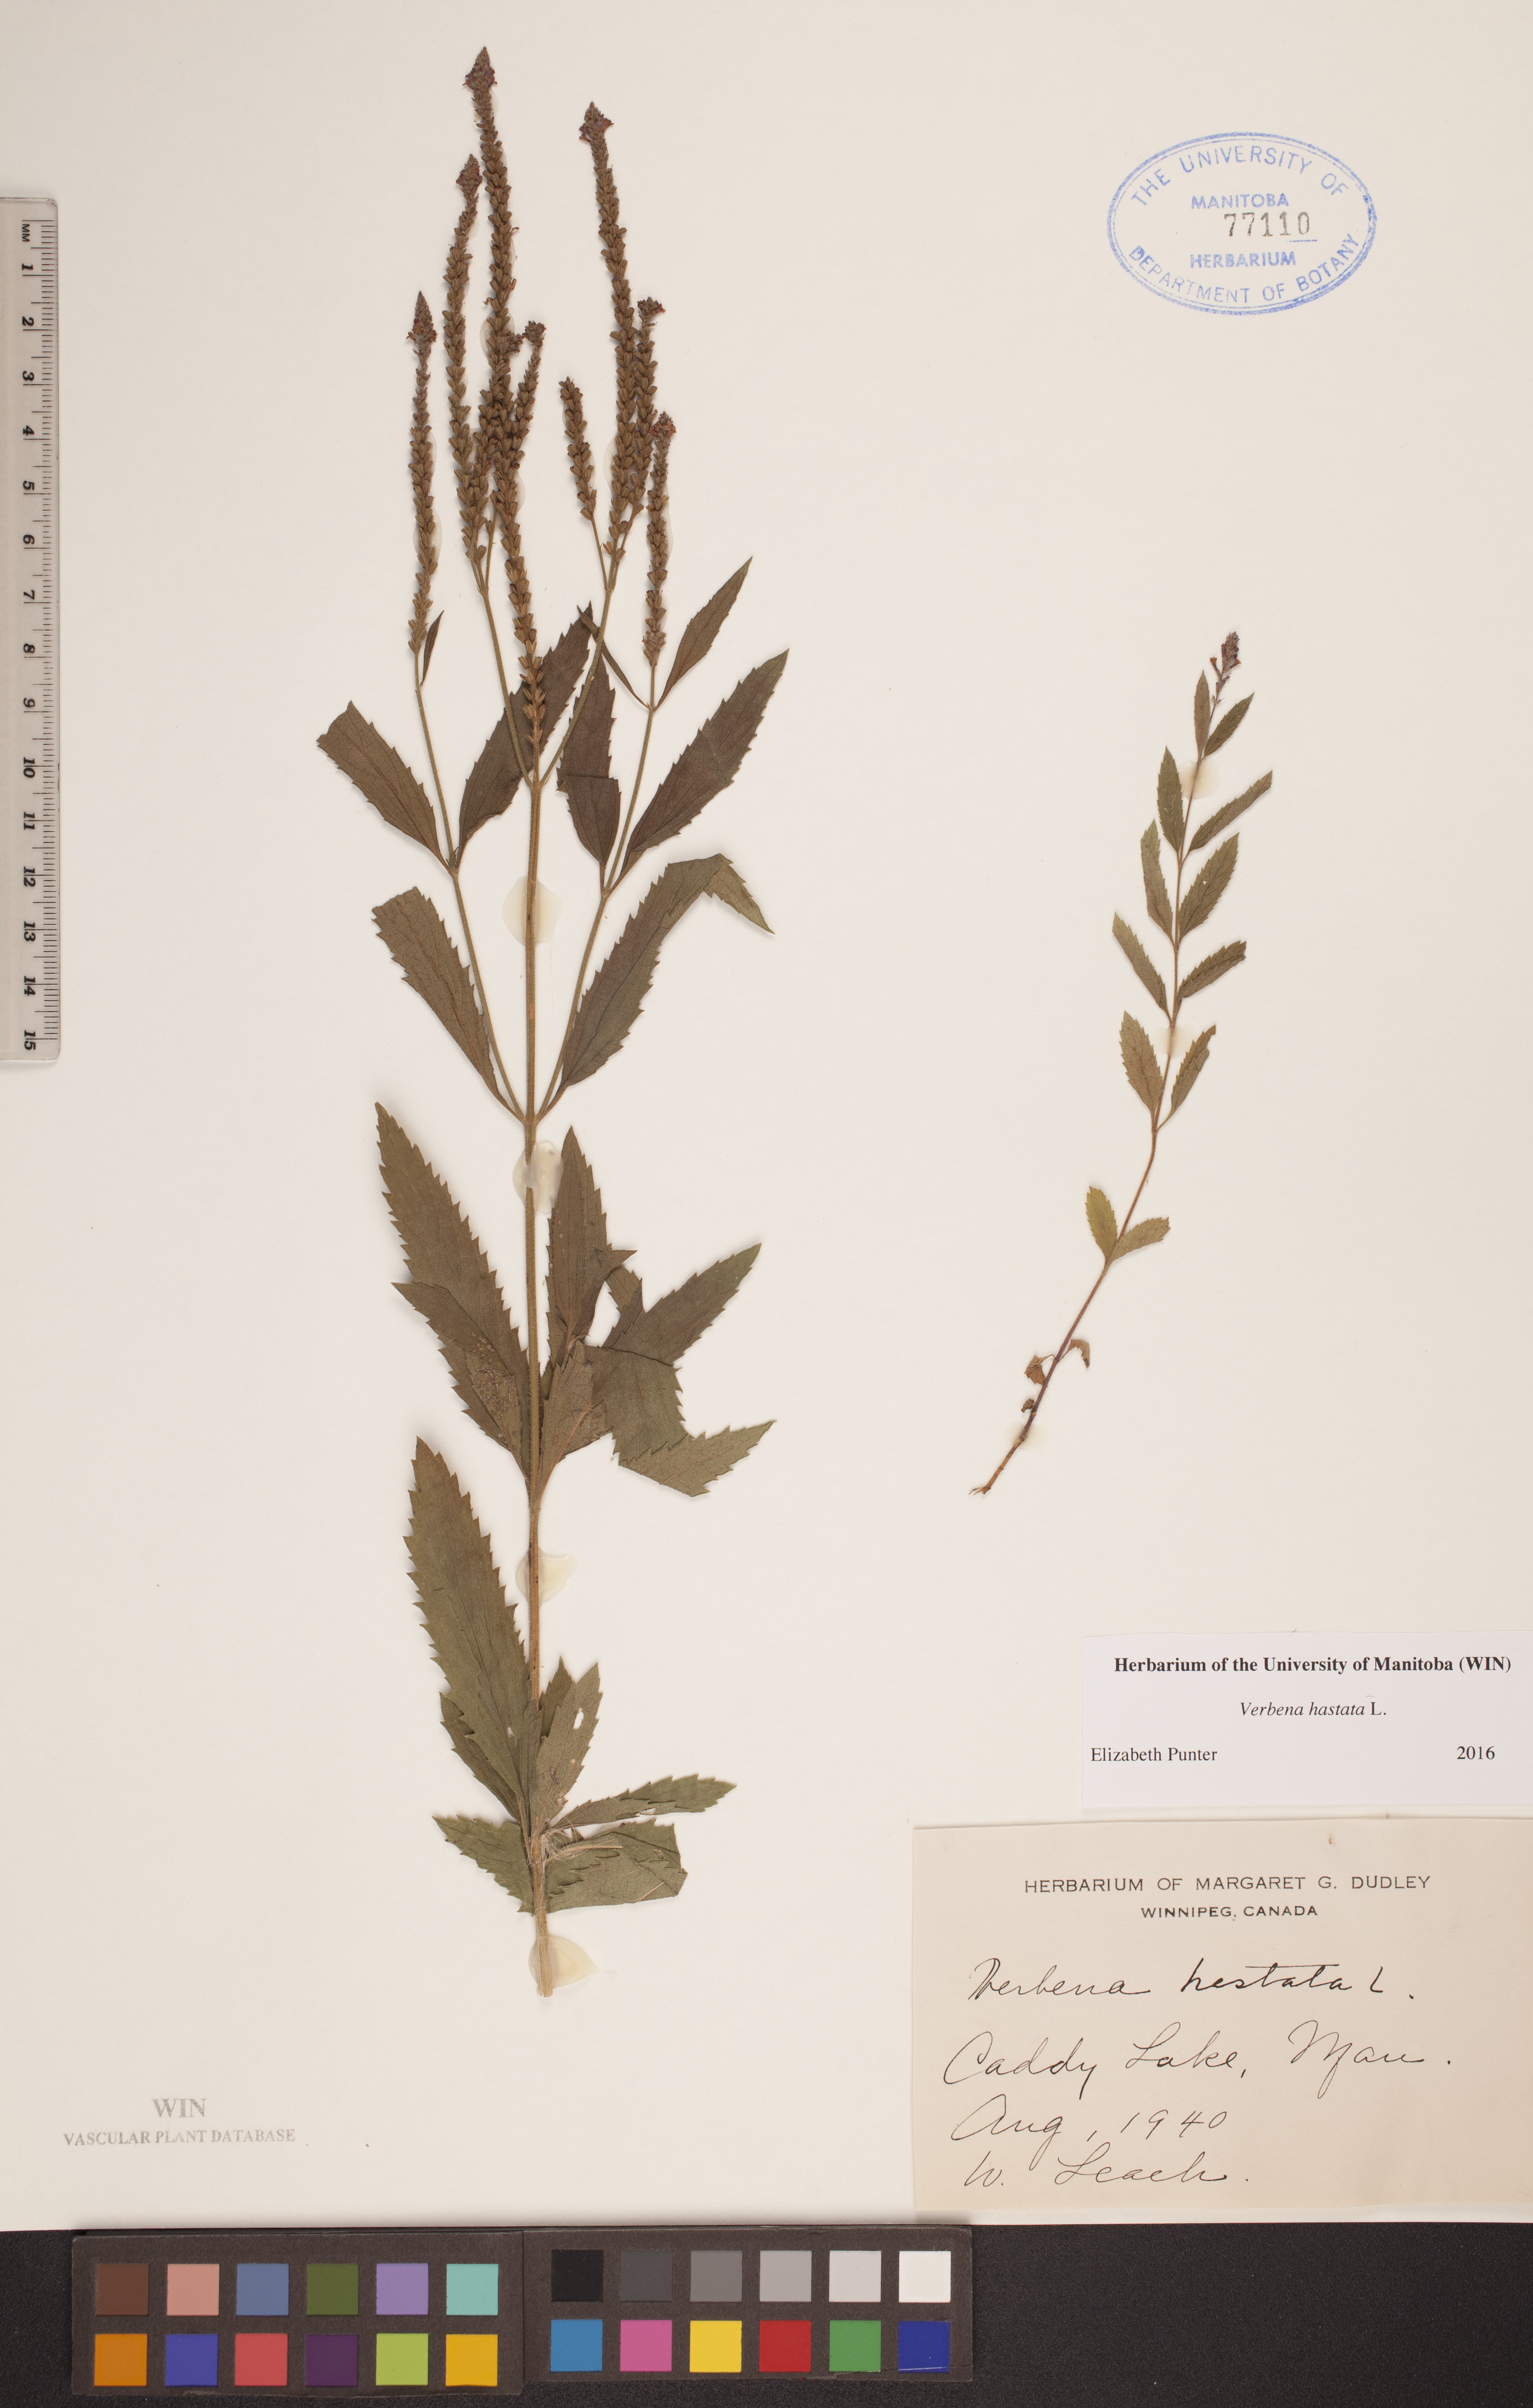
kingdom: Plantae
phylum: Tracheophyta
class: Magnoliopsida
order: Lamiales
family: Verbenaceae
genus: Verbena
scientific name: Verbena hastata
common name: American blue vervain
